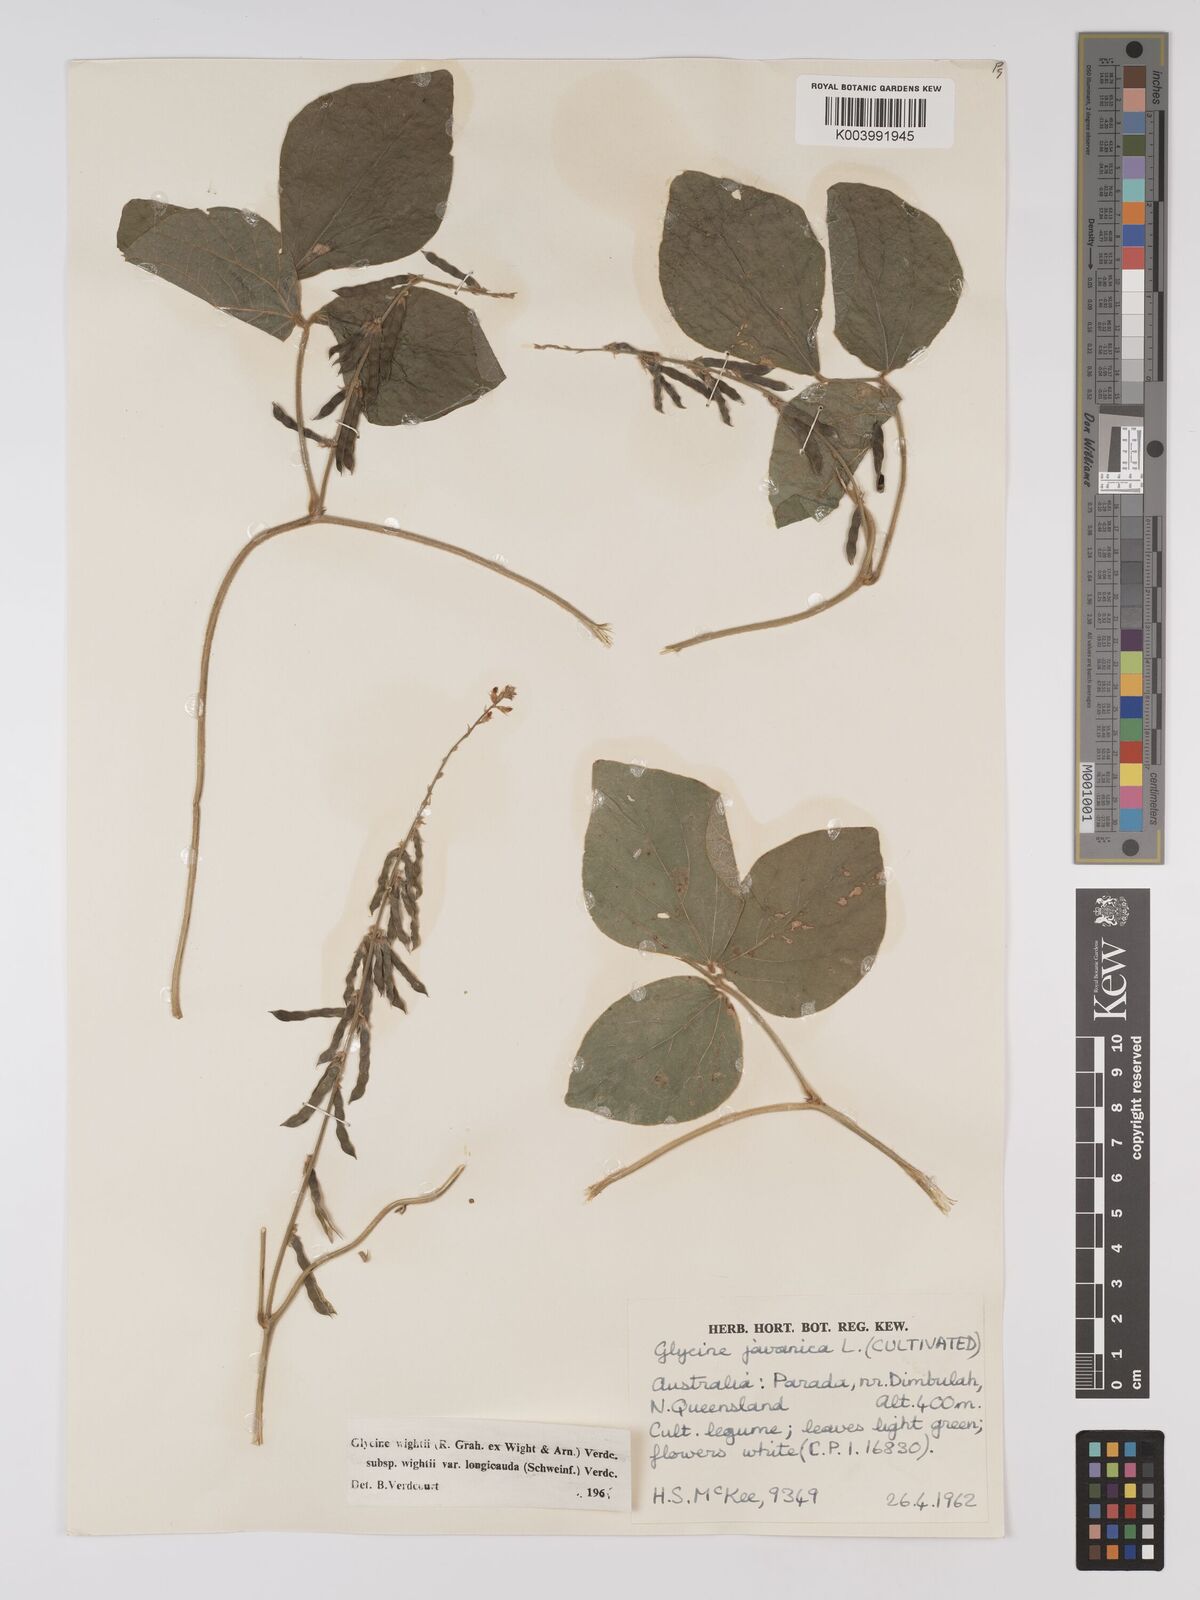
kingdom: Plantae
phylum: Tracheophyta
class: Magnoliopsida
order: Fabales
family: Fabaceae
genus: Pueraria
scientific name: Pueraria montana
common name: Kudzu
